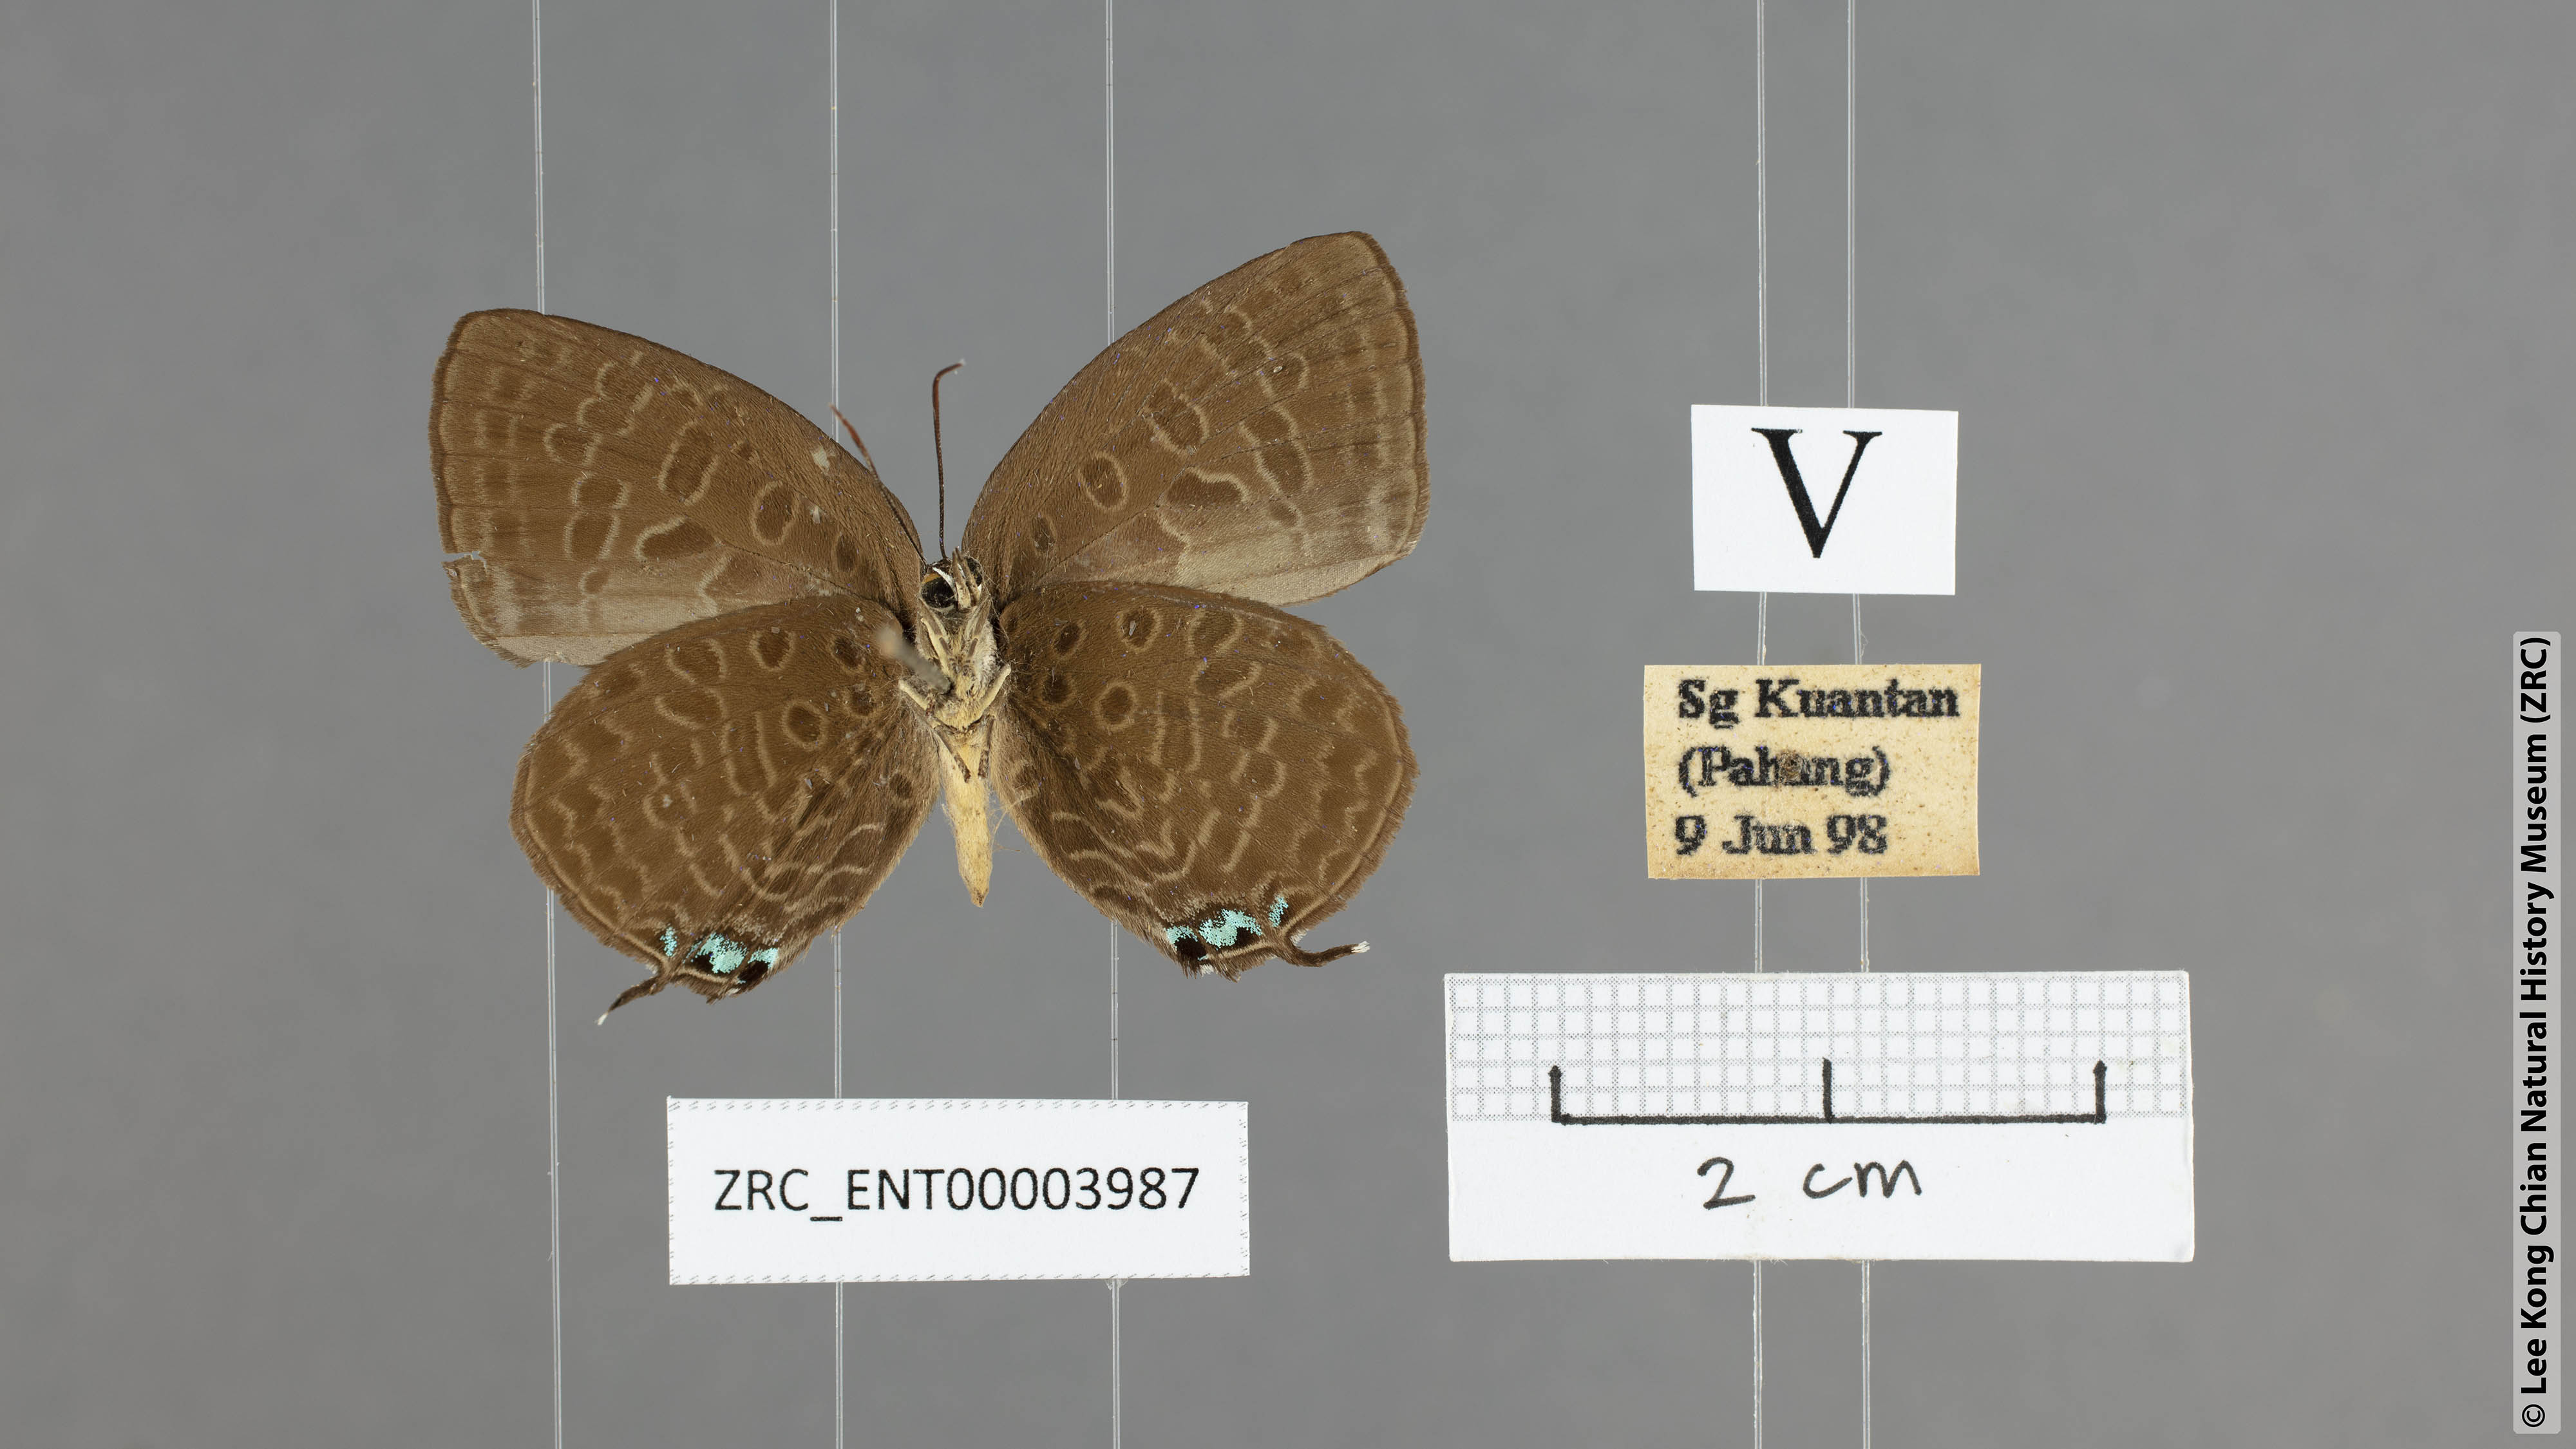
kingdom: Animalia
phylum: Arthropoda
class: Insecta
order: Lepidoptera
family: Lycaenidae
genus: Arhopala
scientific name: Arhopala atosia
